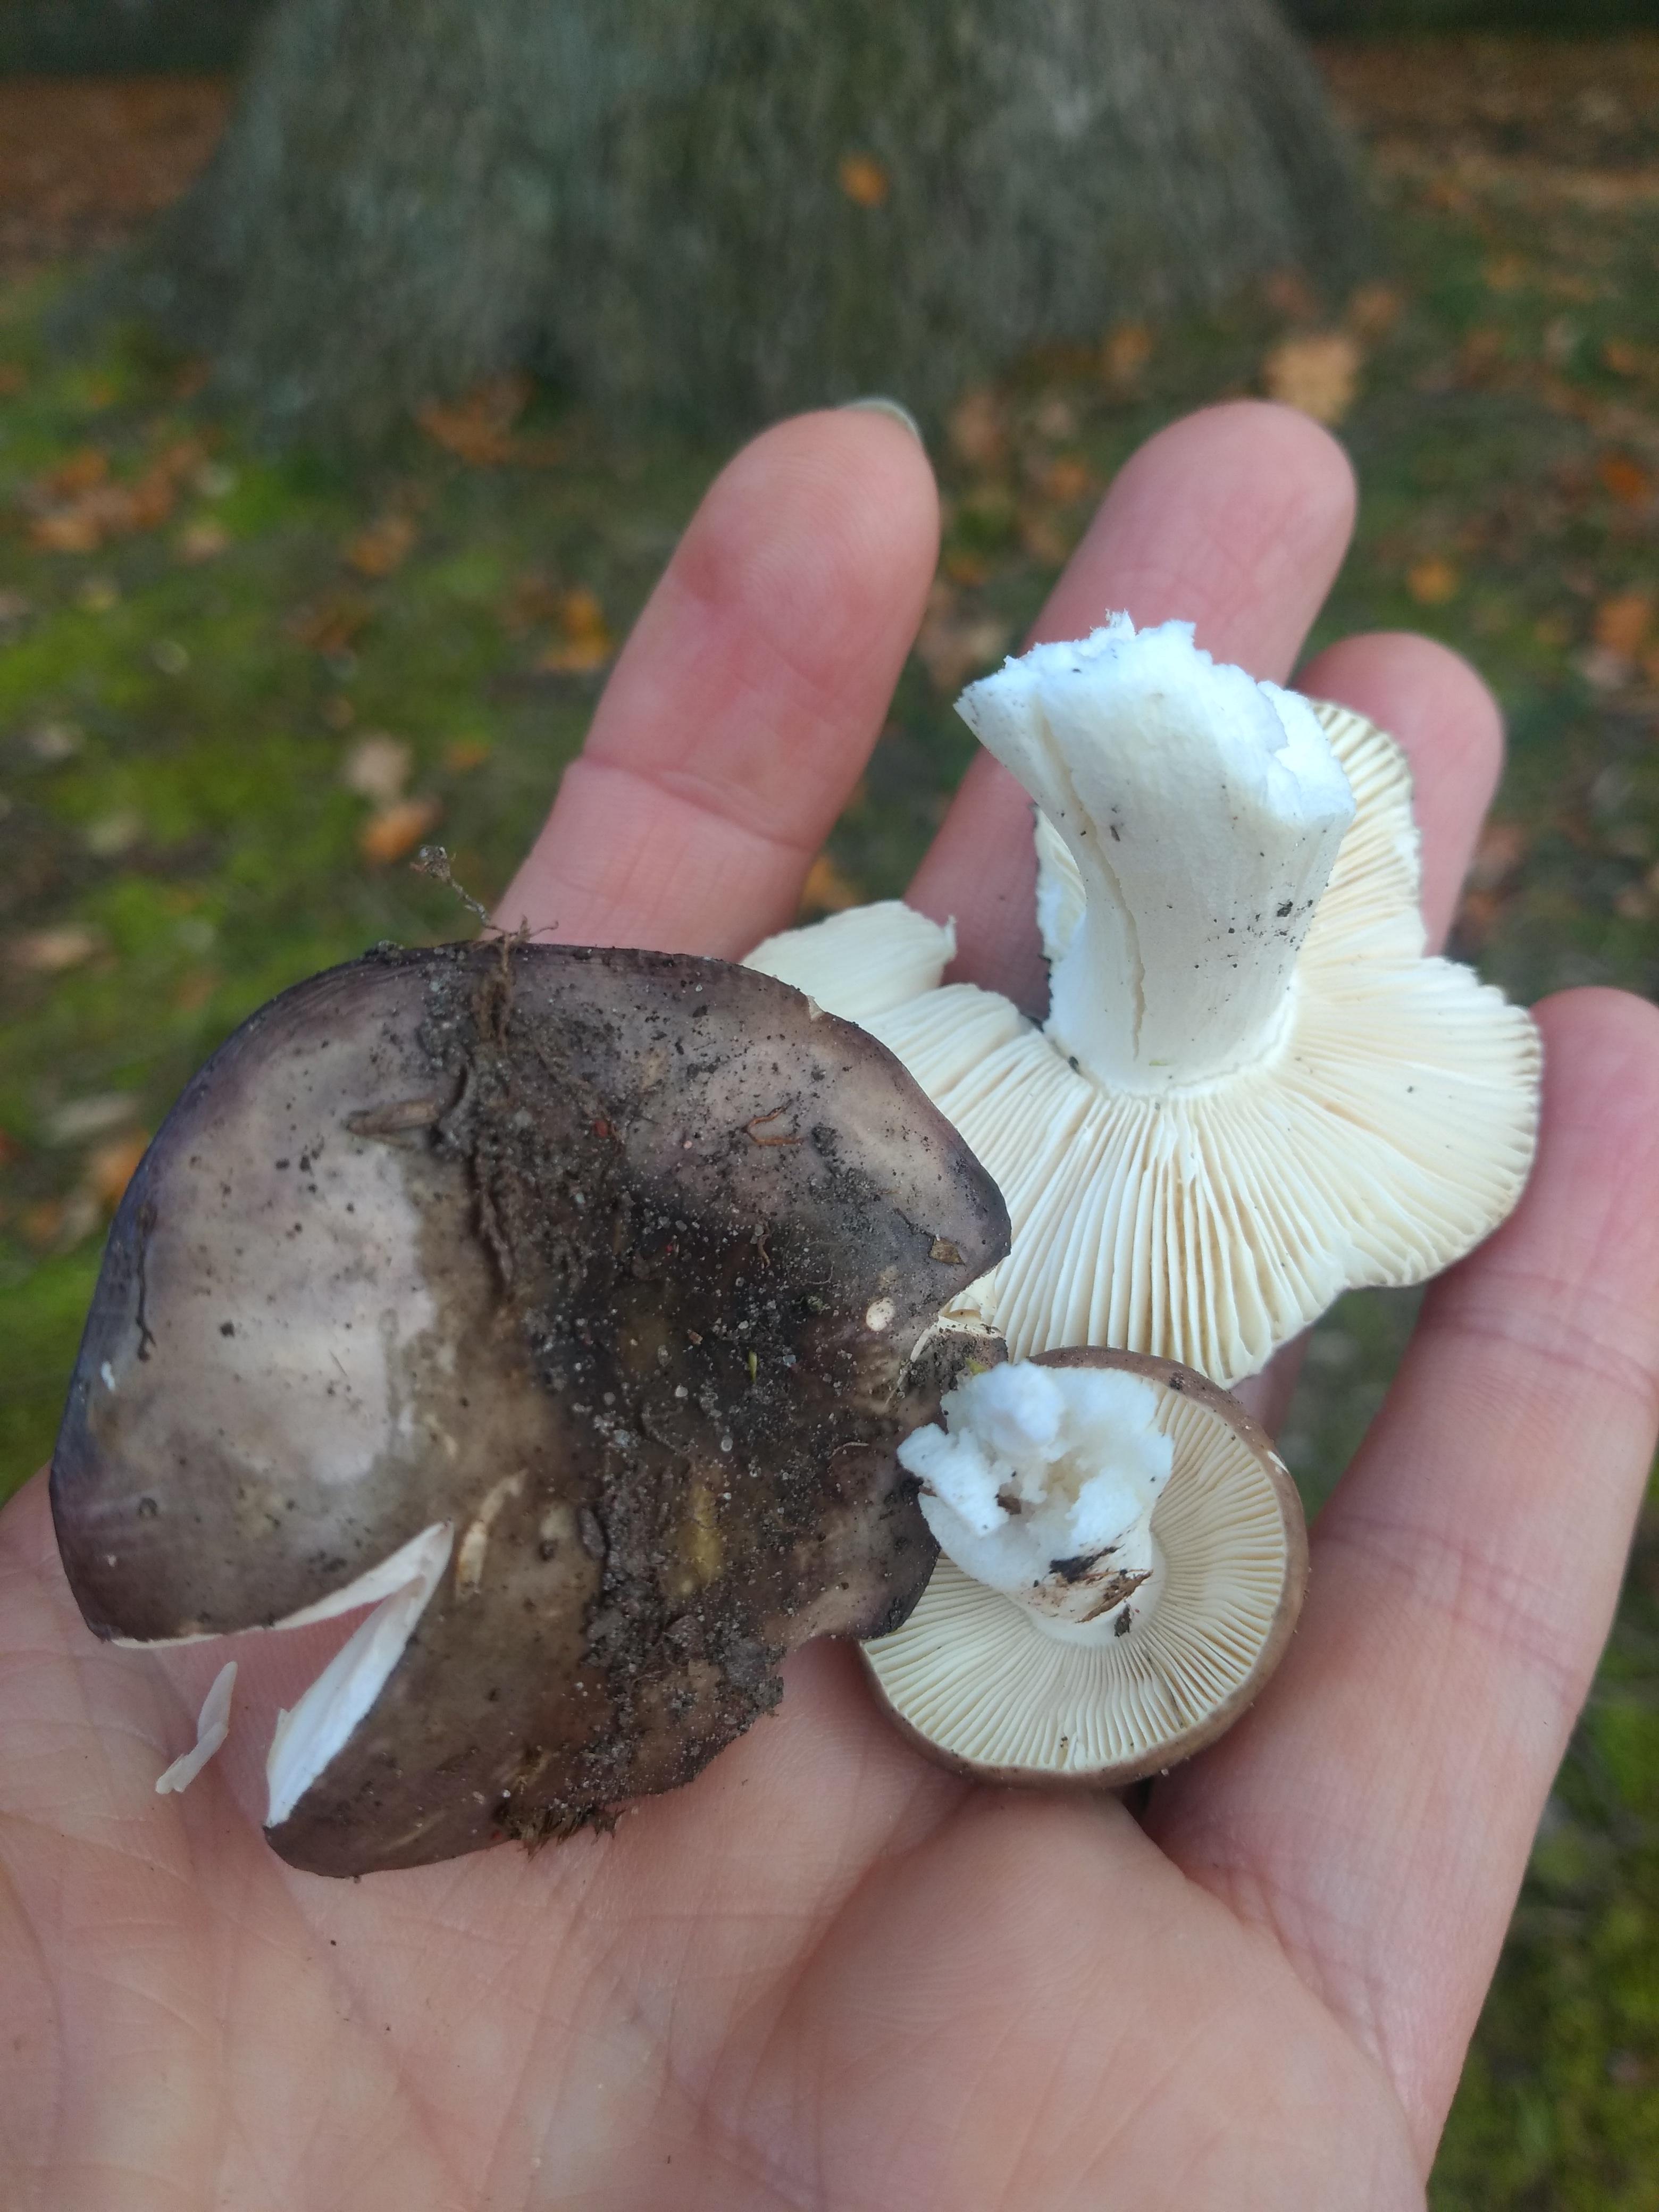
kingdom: Fungi
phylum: Basidiomycota
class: Agaricomycetes
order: Russulales
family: Russulaceae
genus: Russula
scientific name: Russula atropurpurea
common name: purpurbroget skørhat
